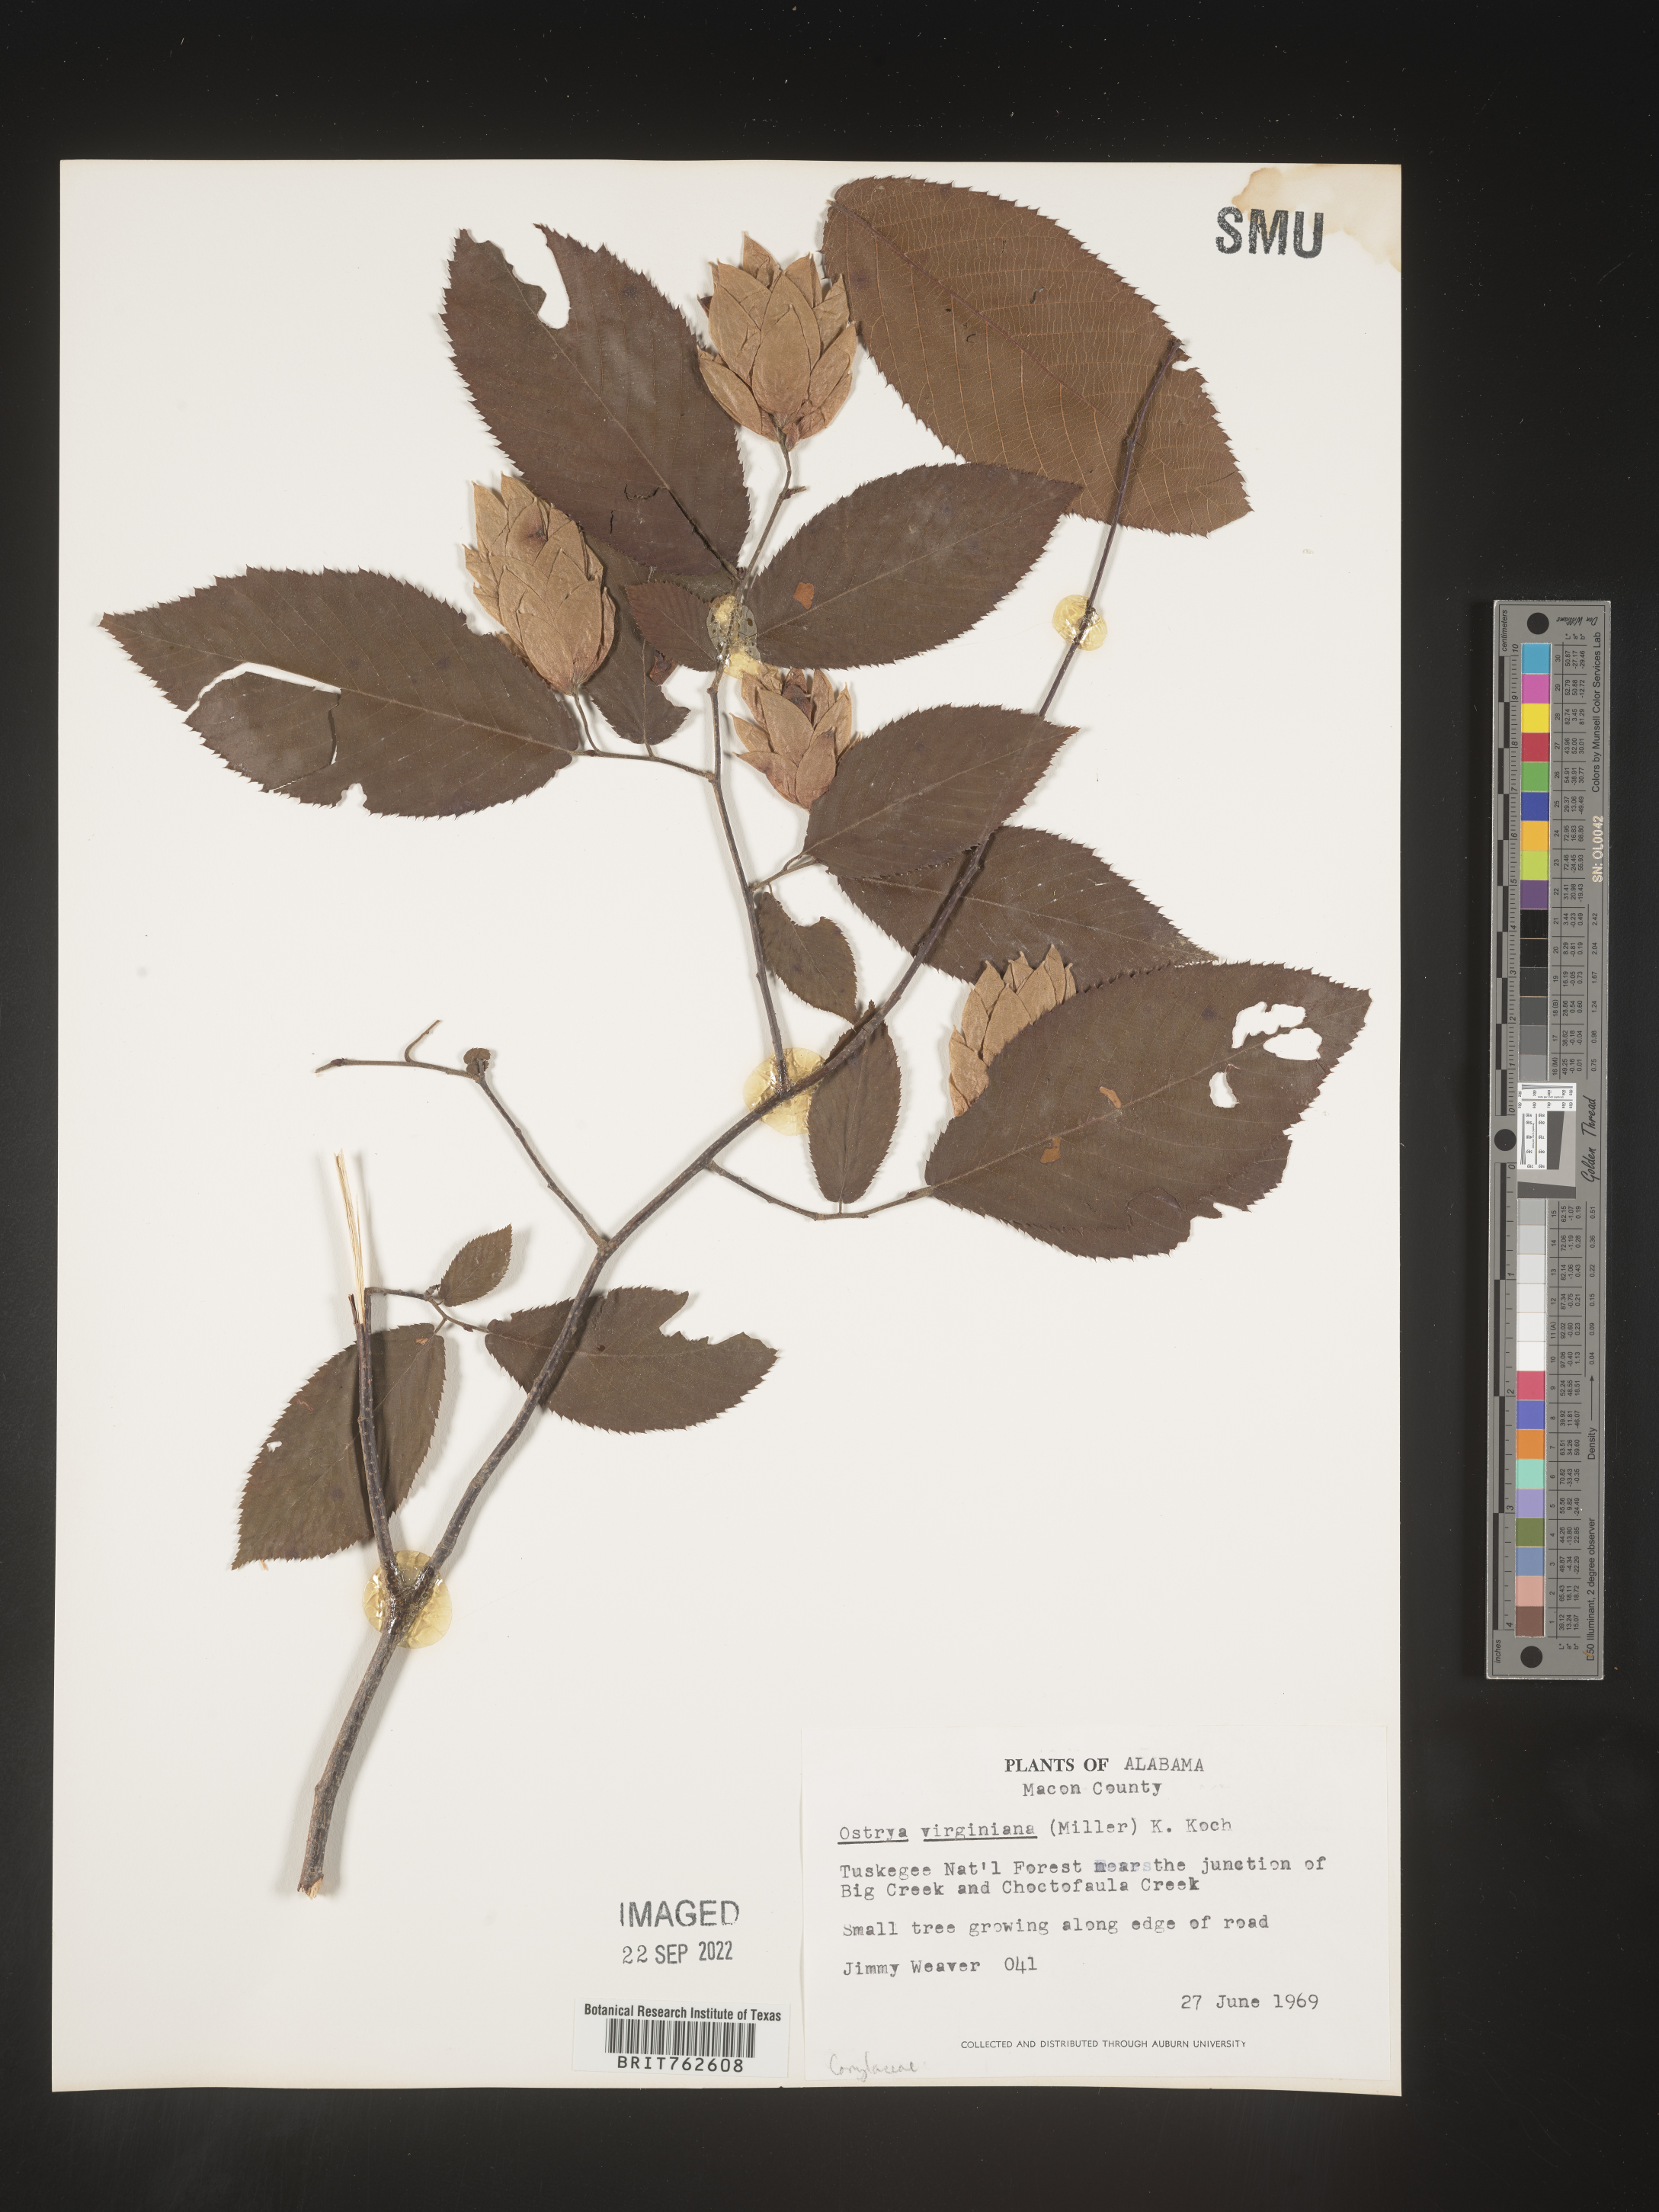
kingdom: Plantae
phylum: Tracheophyta
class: Magnoliopsida
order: Fagales
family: Betulaceae
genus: Ostrya
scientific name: Ostrya virginiana
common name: Ironwood
